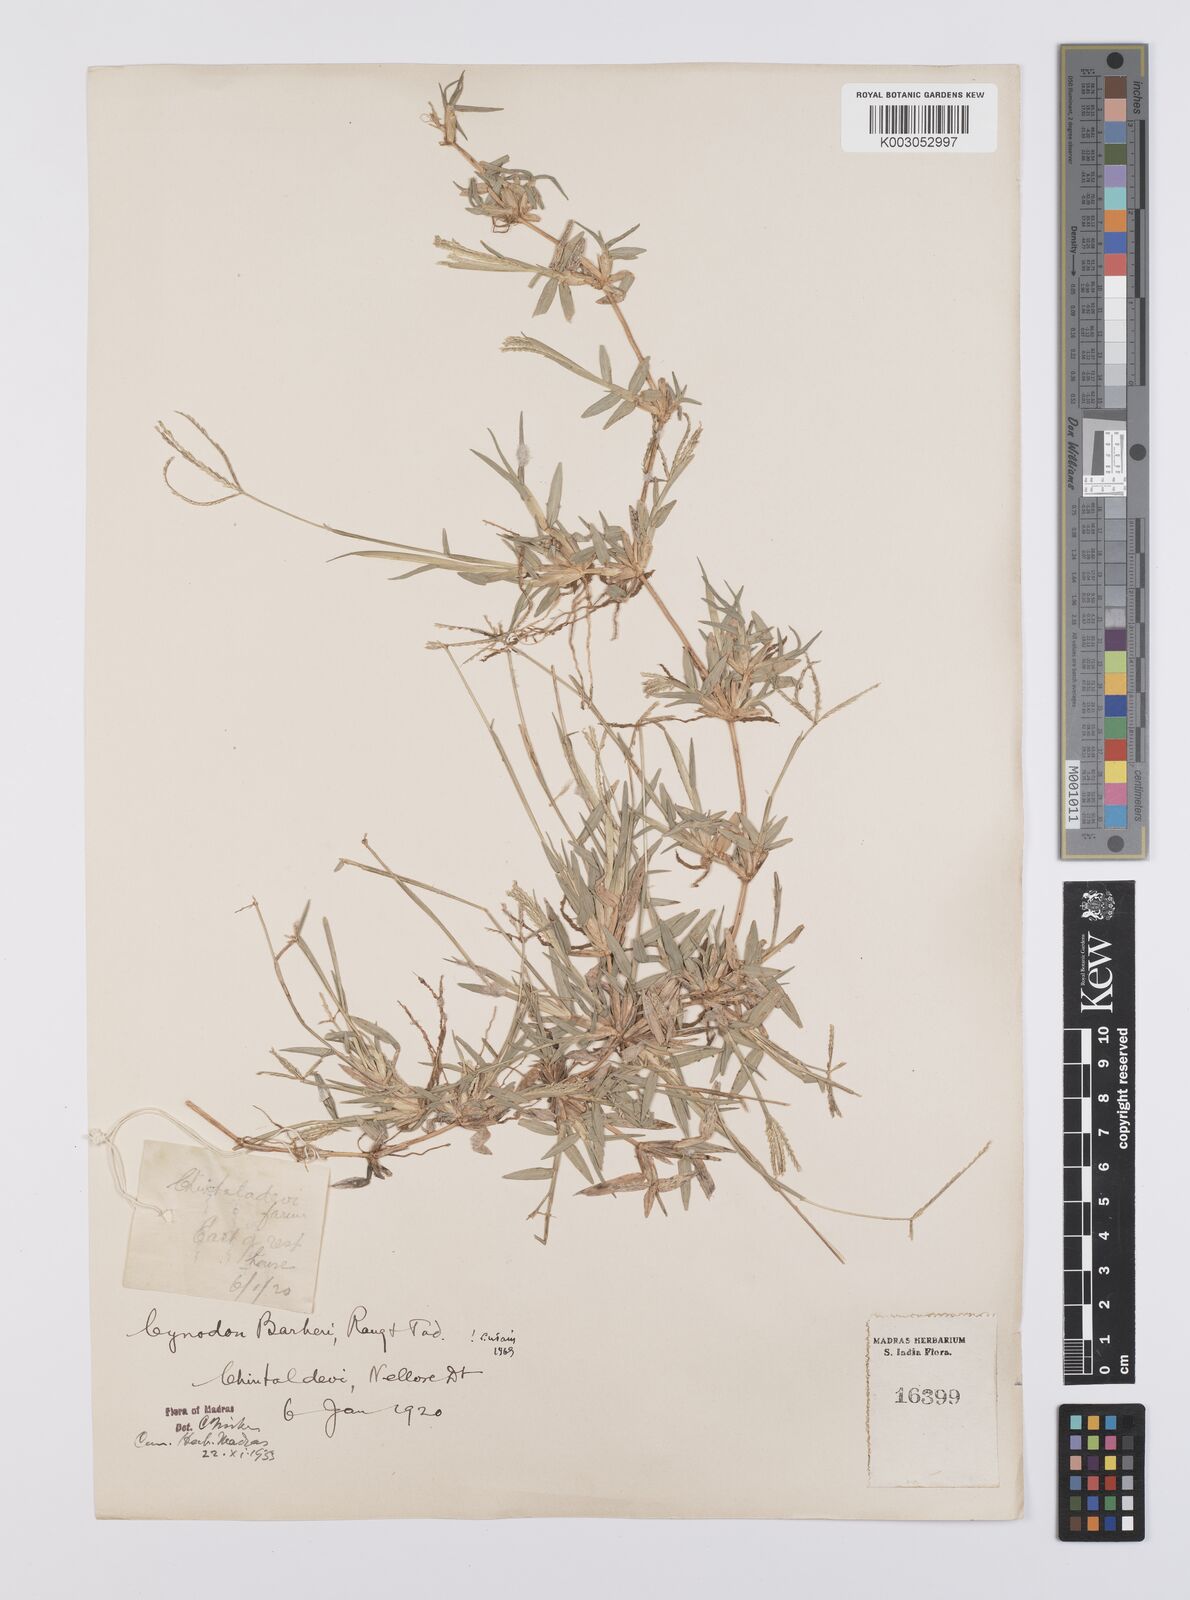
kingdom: Plantae
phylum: Tracheophyta
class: Liliopsida
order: Poales
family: Poaceae
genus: Cynodon
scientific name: Cynodon barberi
